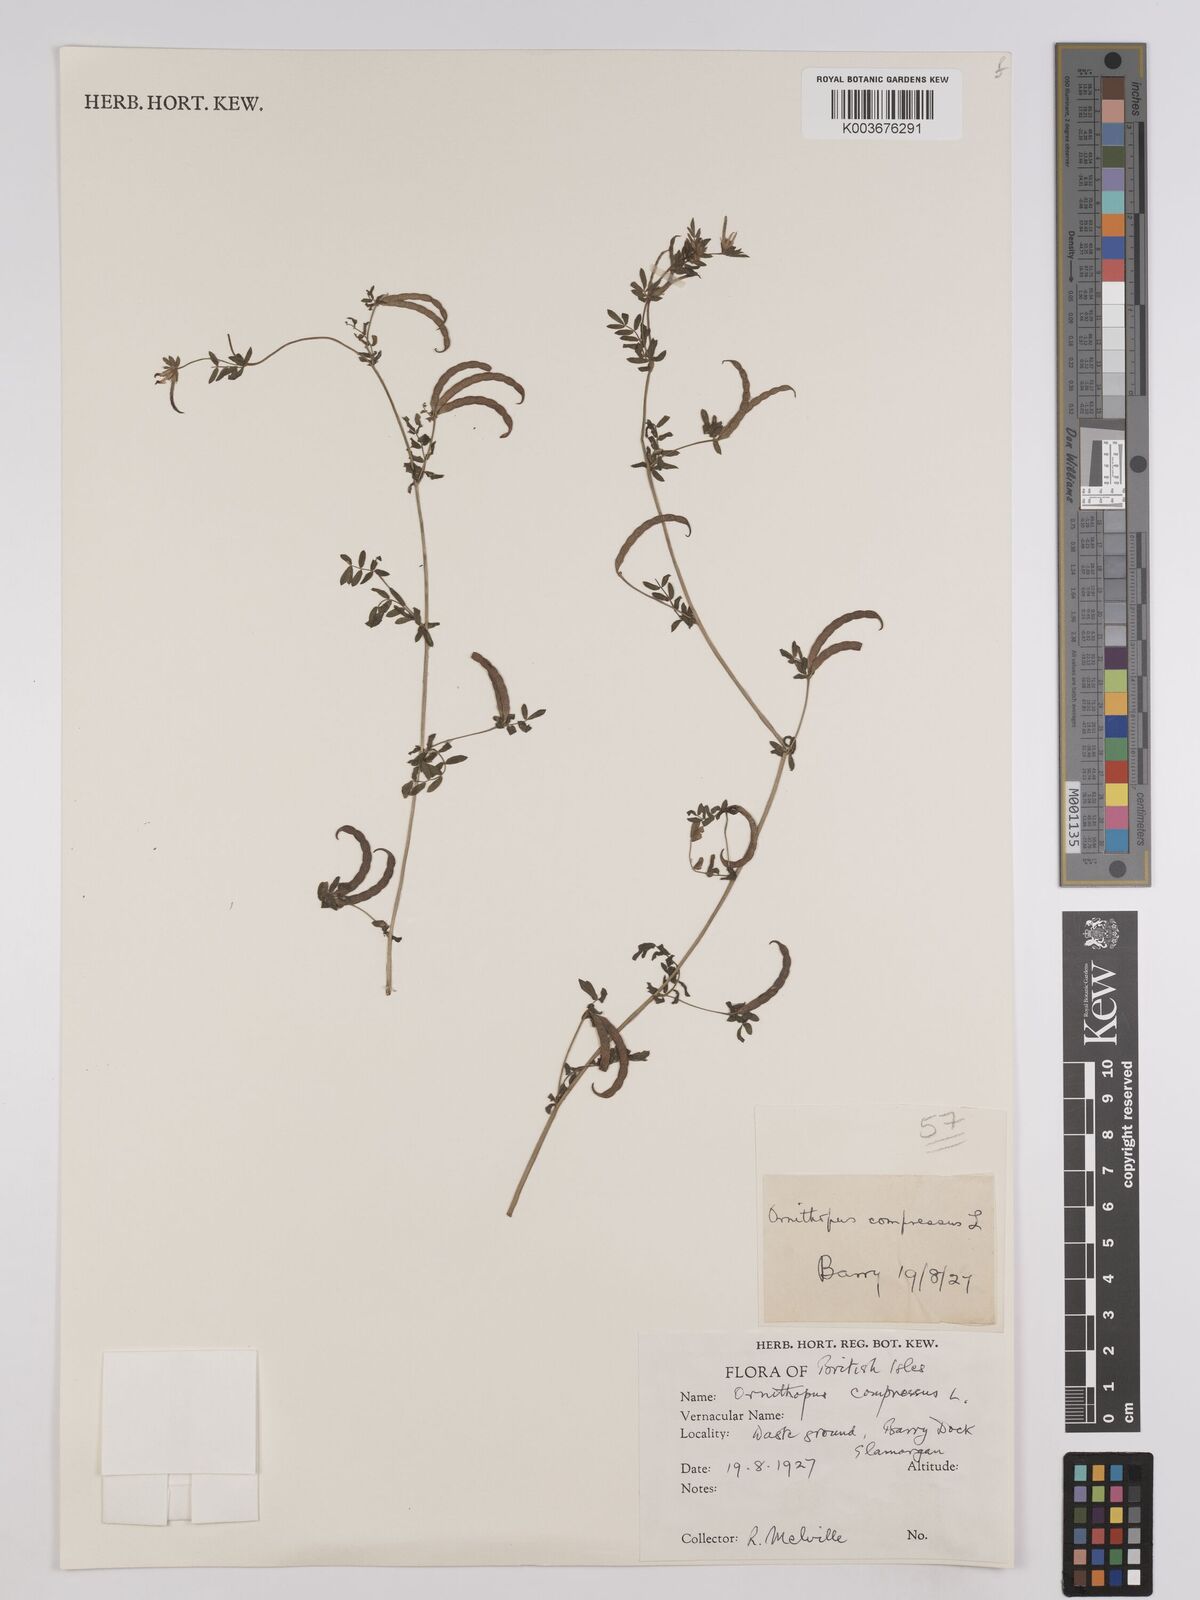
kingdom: Plantae
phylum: Tracheophyta
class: Magnoliopsida
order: Fabales
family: Fabaceae
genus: Ornithopus
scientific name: Ornithopus compressus
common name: Yellow serradella
